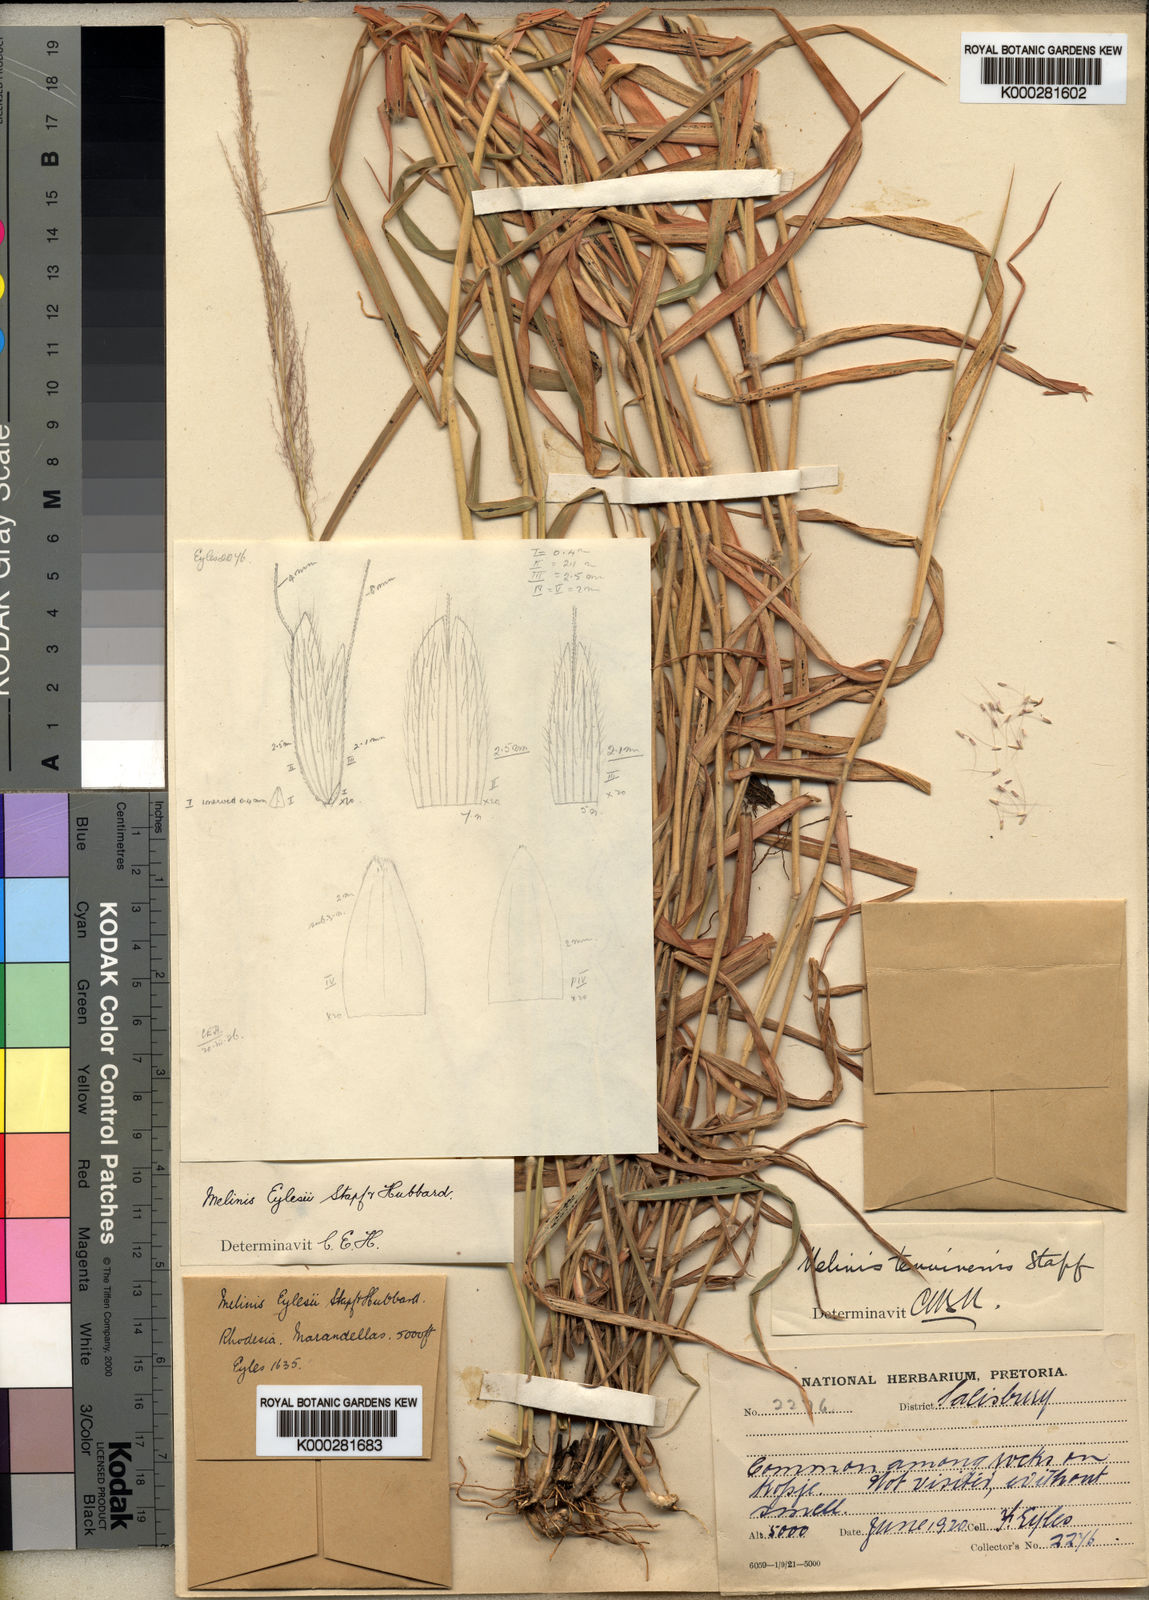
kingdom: Plantae
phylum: Tracheophyta
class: Liliopsida
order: Poales
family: Poaceae
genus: Melinis
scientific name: Melinis ambigua
